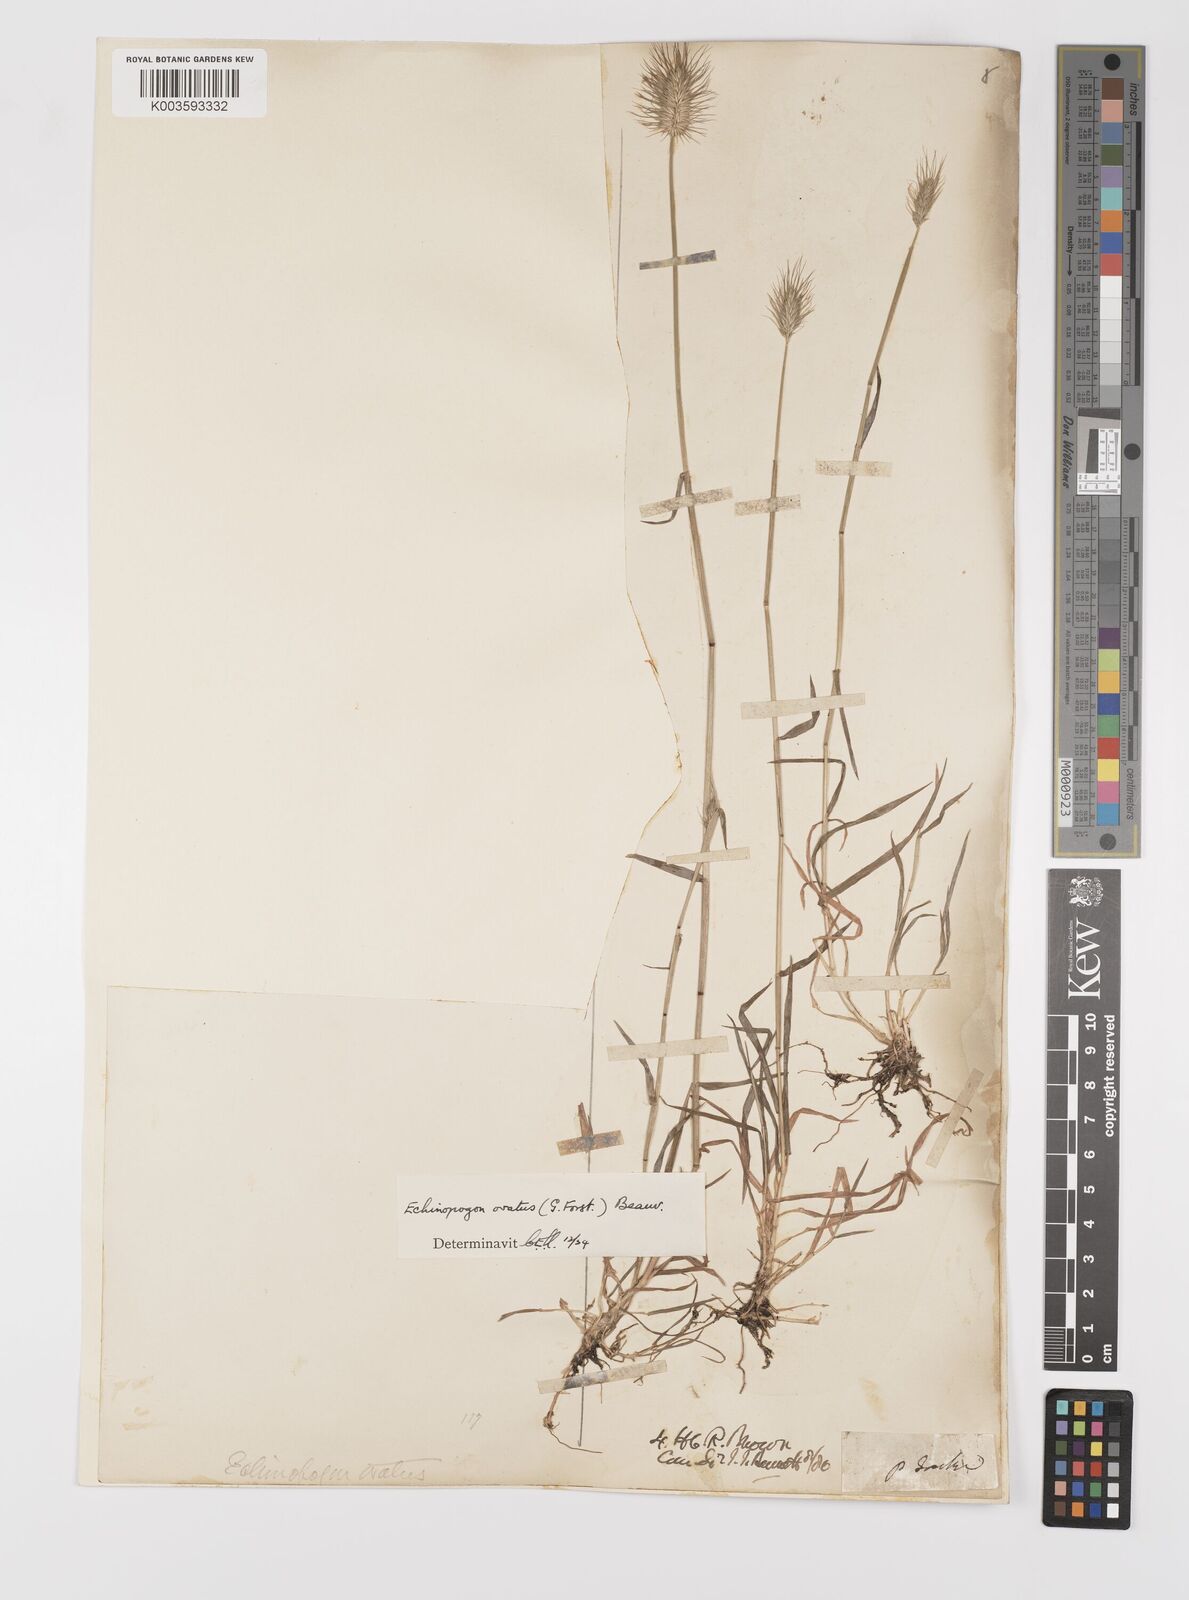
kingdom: Plantae
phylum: Tracheophyta
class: Liliopsida
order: Poales
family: Poaceae
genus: Echinopogon
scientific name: Echinopogon ovatus
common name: Hedgehog-grass
